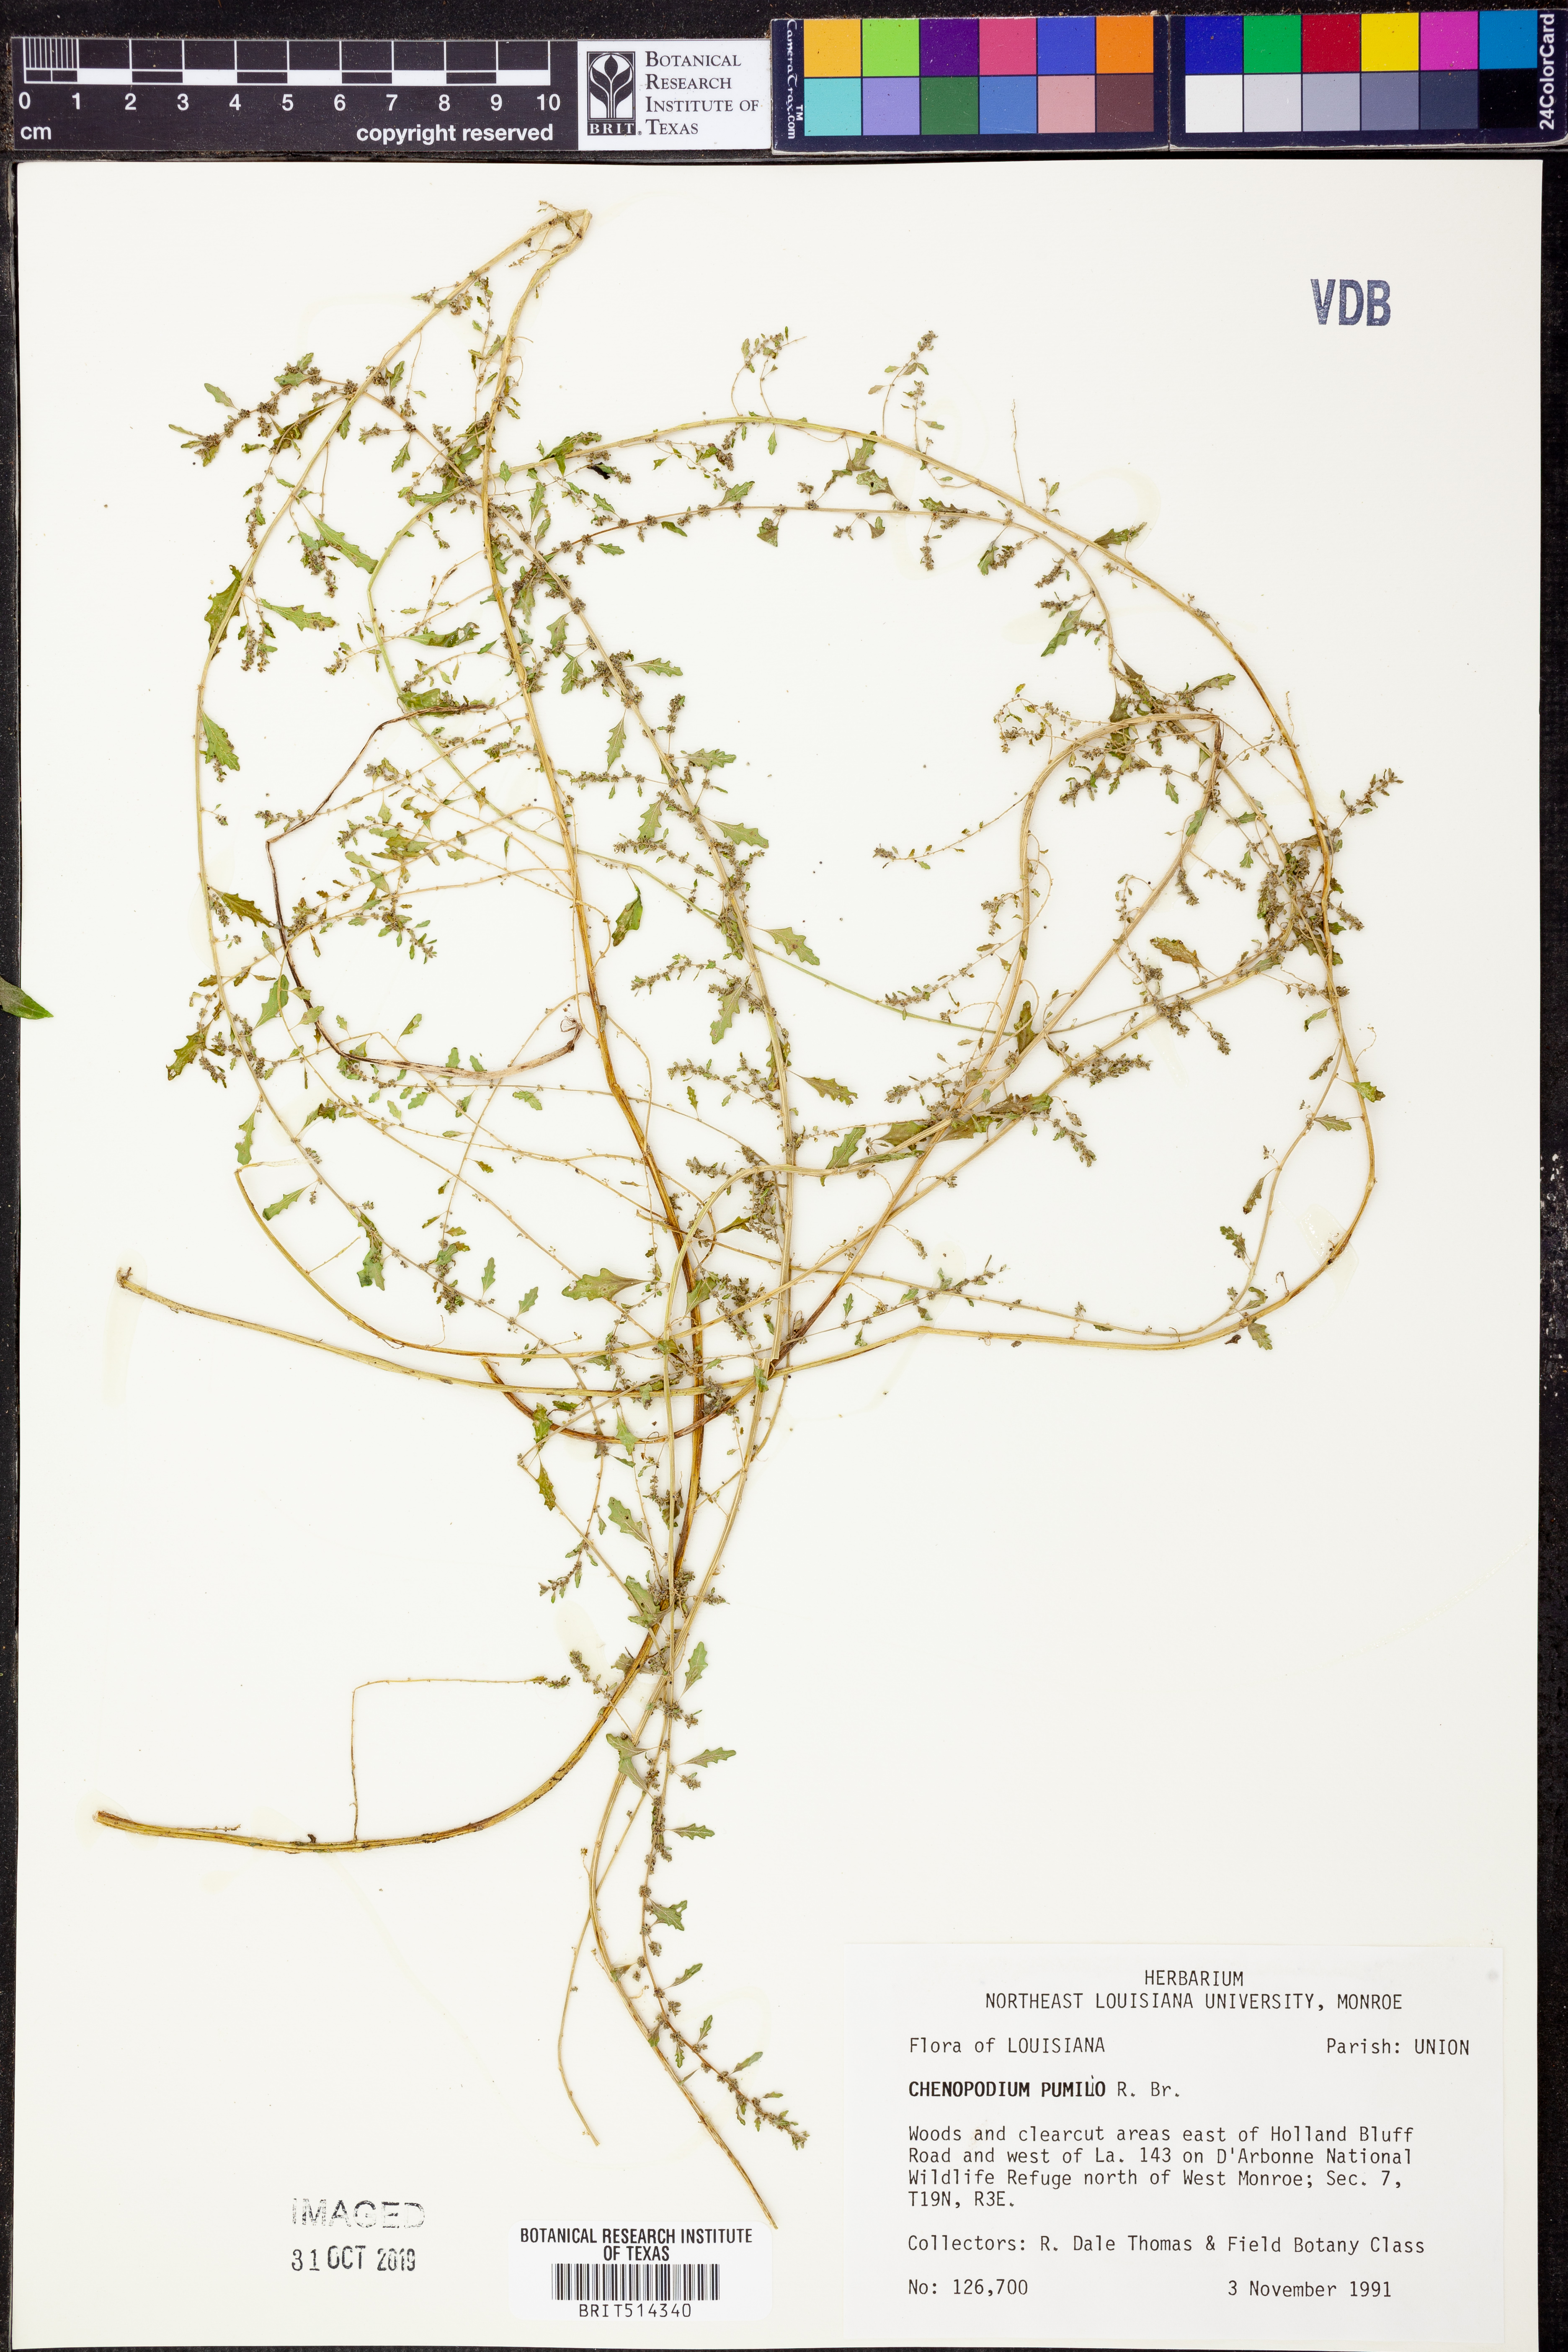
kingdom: Plantae
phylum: Tracheophyta
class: Magnoliopsida
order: Caryophyllales
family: Amaranthaceae
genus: Dysphania
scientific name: Dysphania pumilio
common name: Clammy goosefoot
